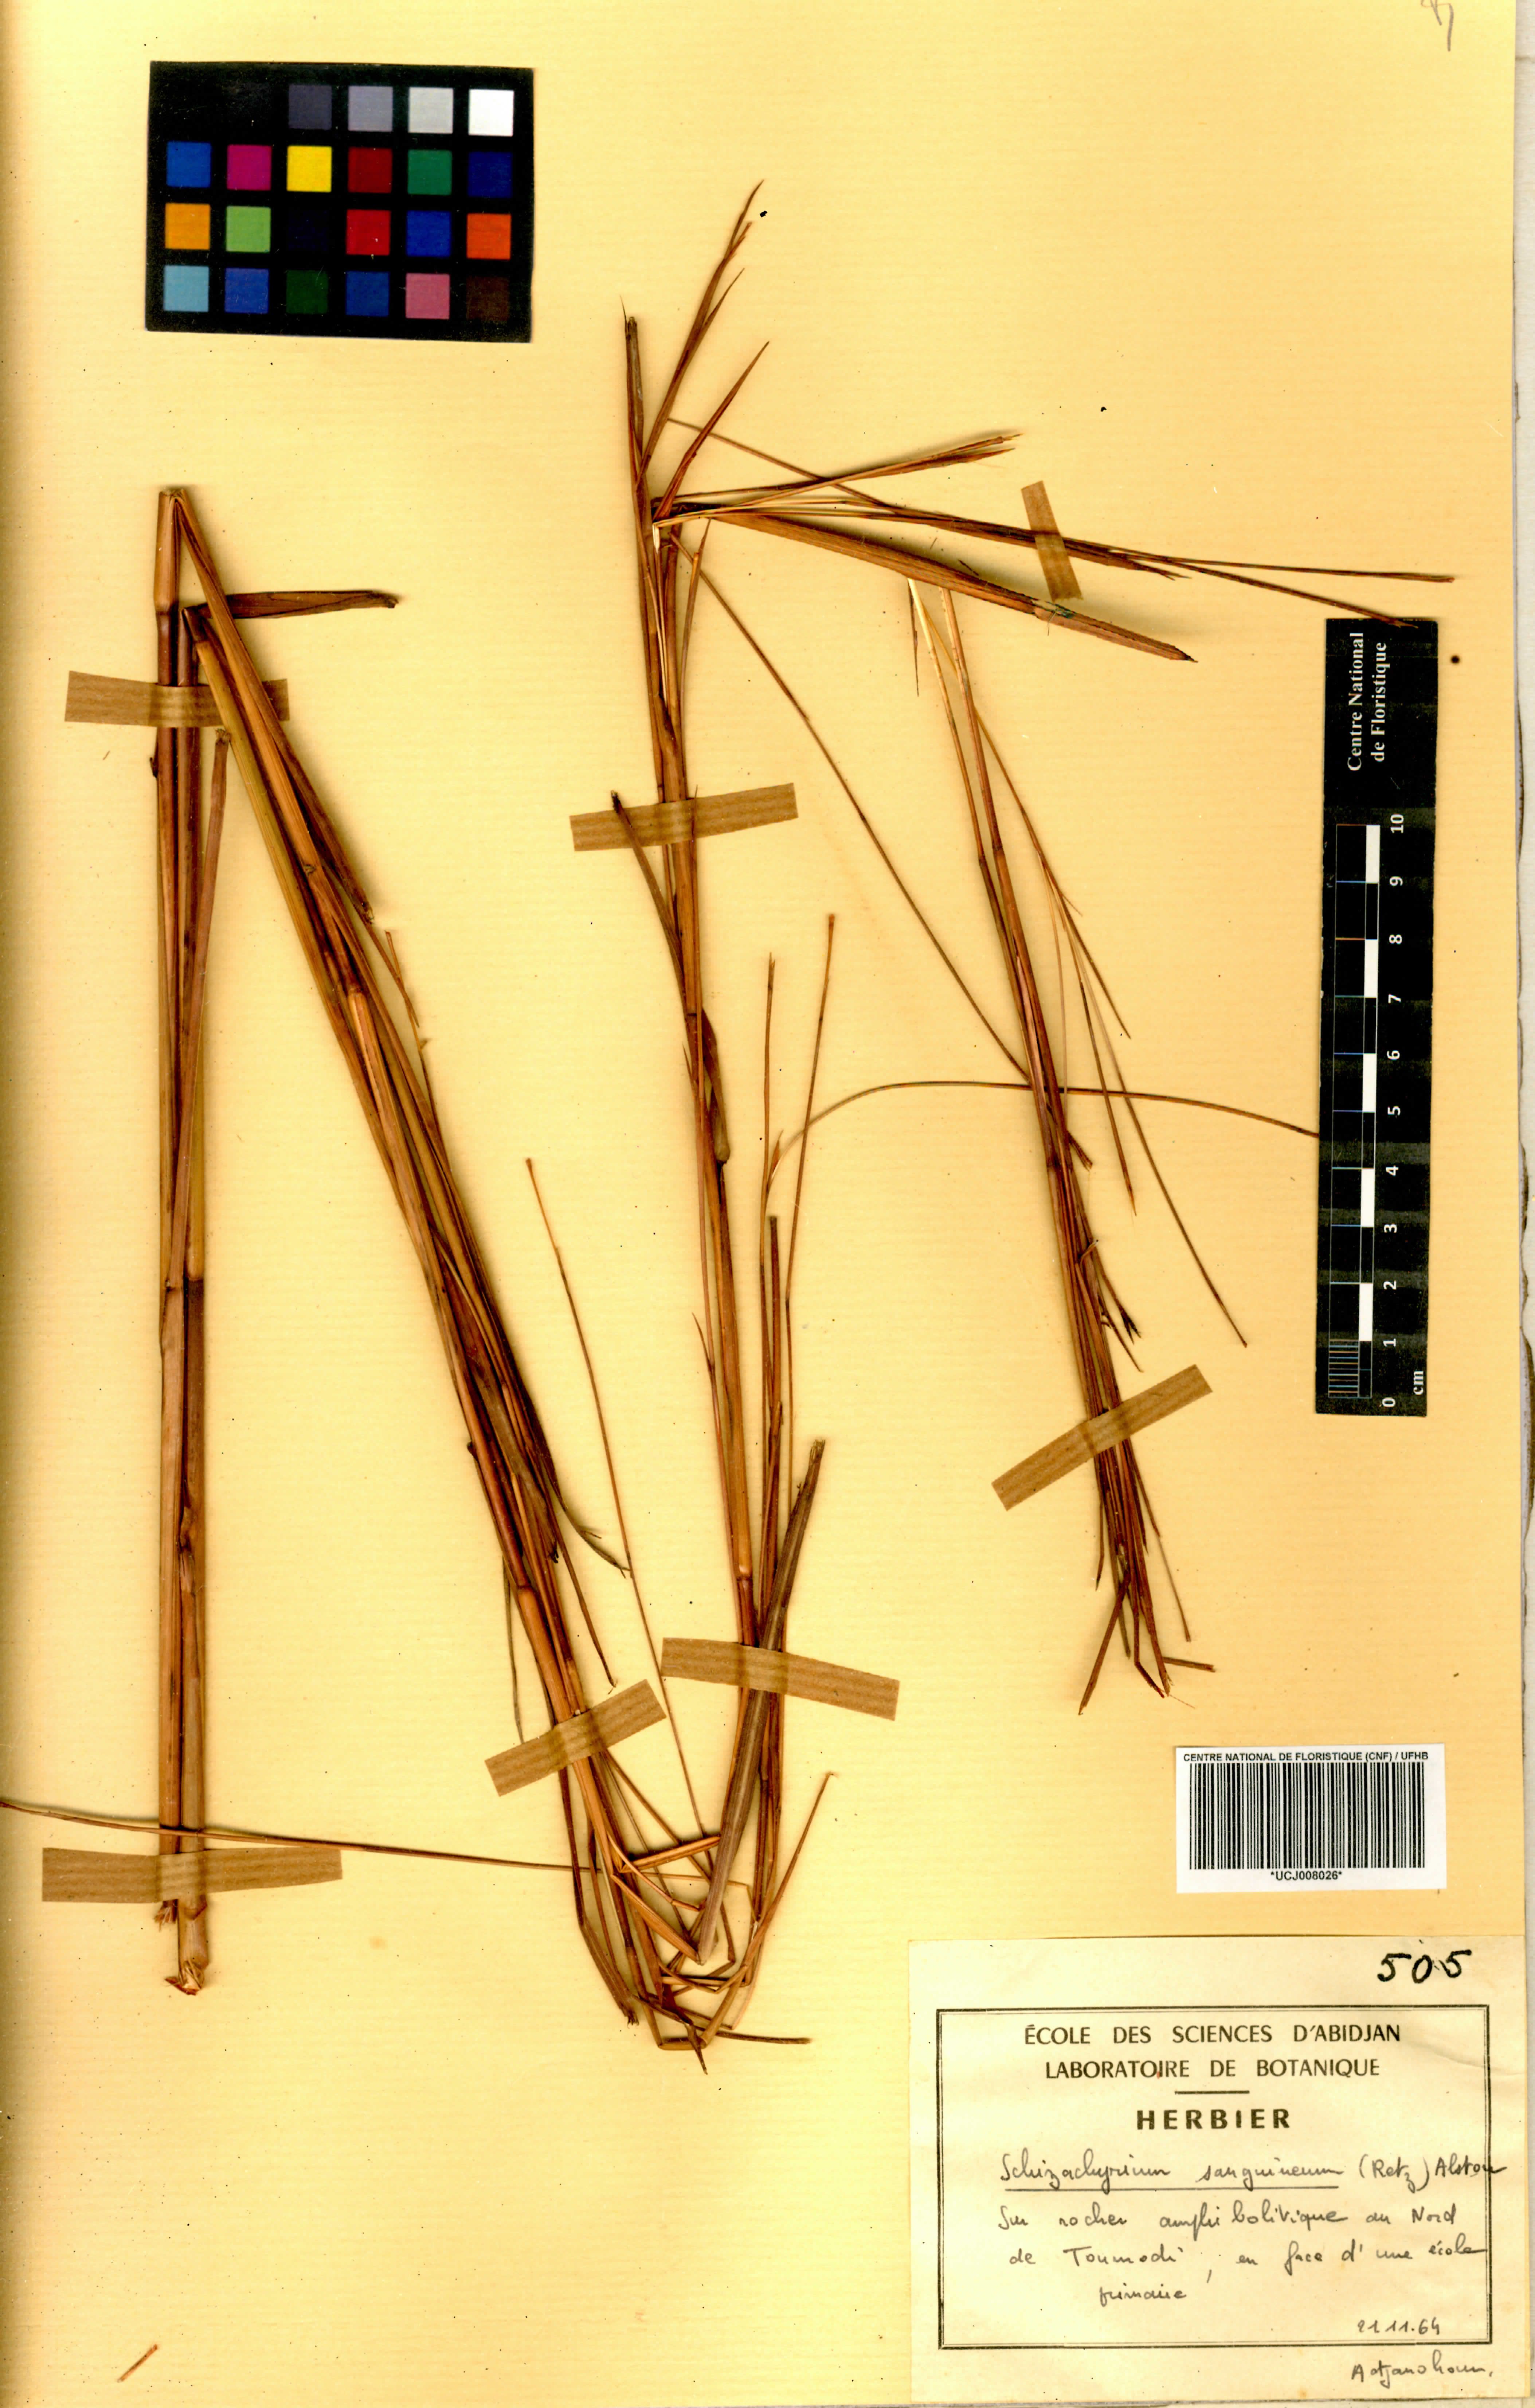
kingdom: Plantae
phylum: Tracheophyta
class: Liliopsida
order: Poales
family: Poaceae
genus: Schizachyrium
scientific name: Schizachyrium sanguineum
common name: Crimson bluestem
